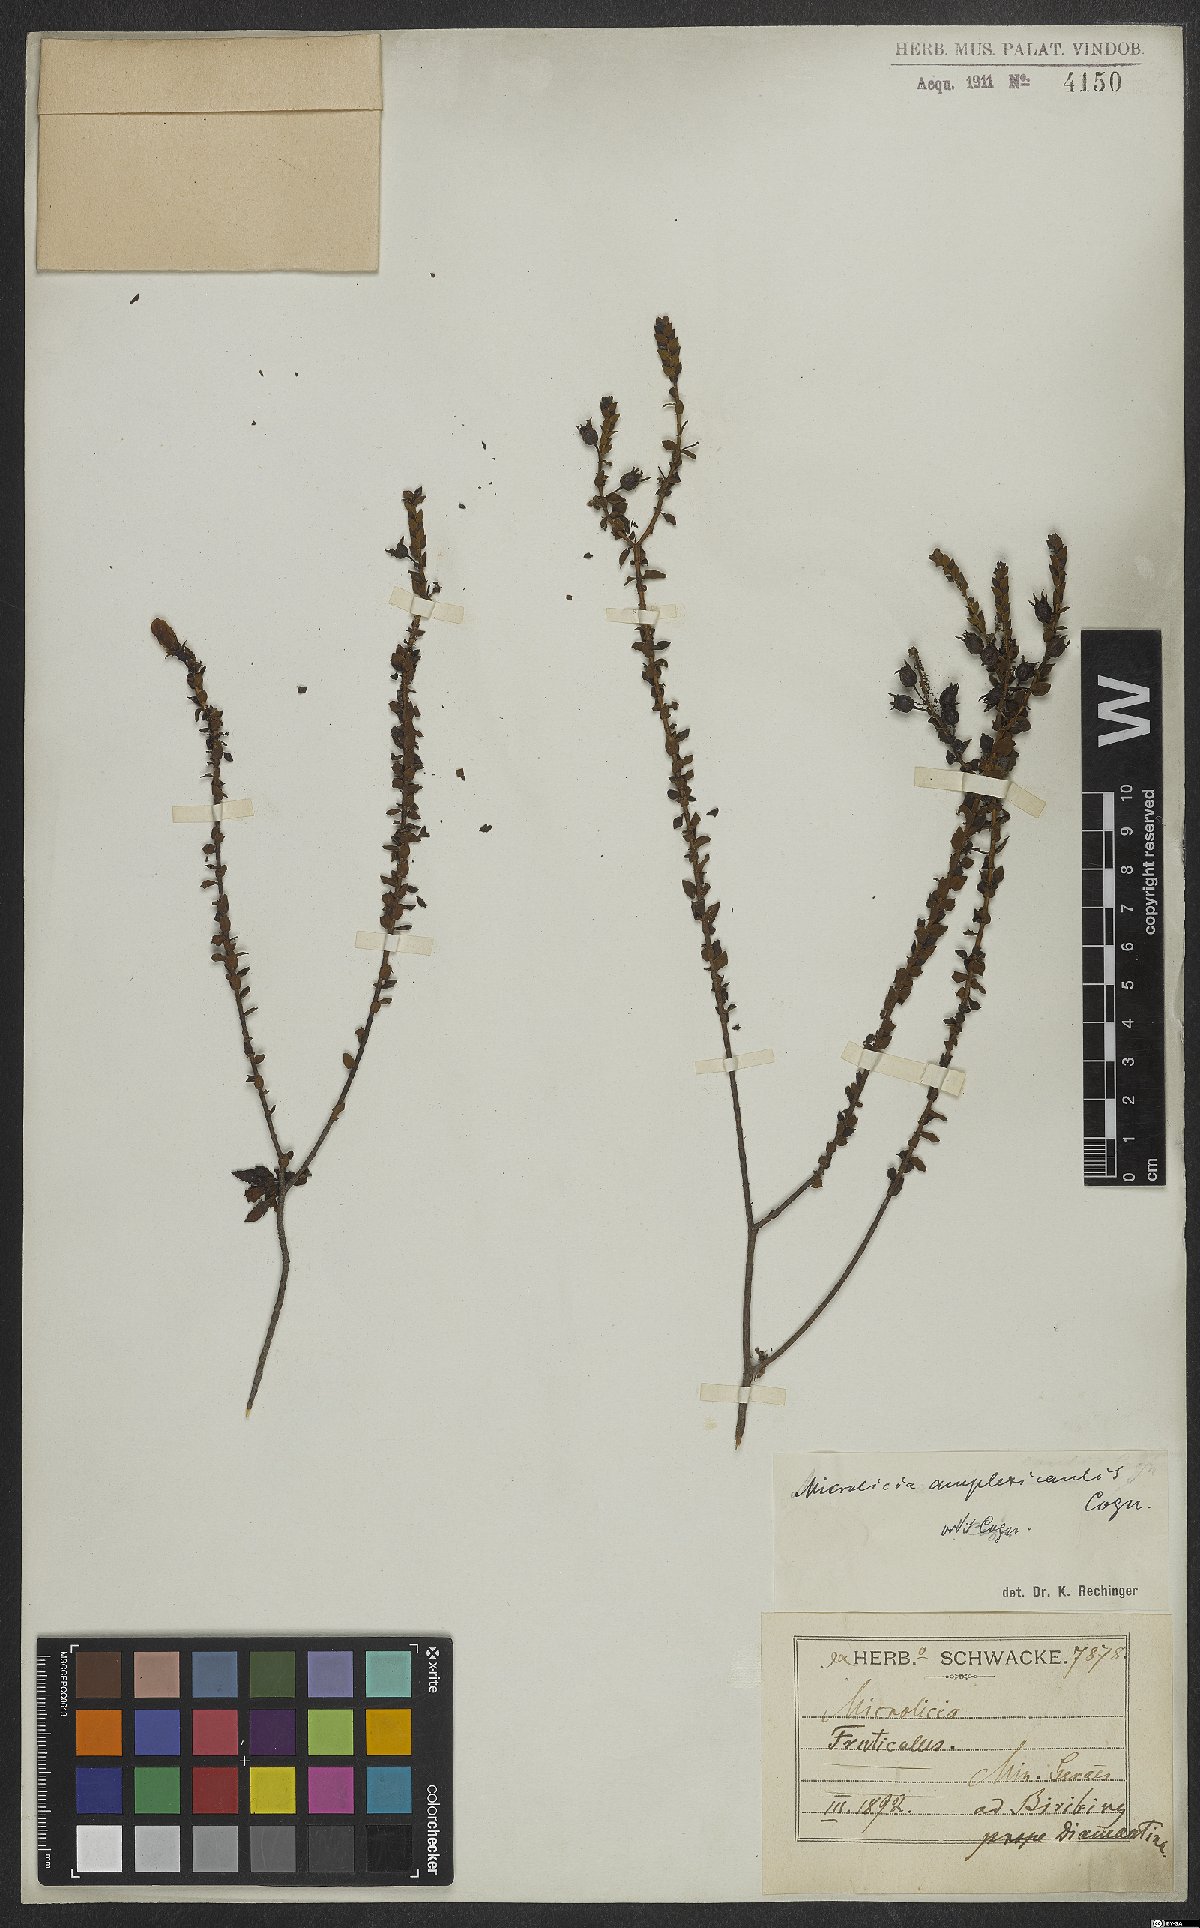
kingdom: Plantae
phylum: Tracheophyta
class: Magnoliopsida
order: Myrtales
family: Melastomataceae
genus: Microlicia
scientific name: Microlicia amplexicaulis
